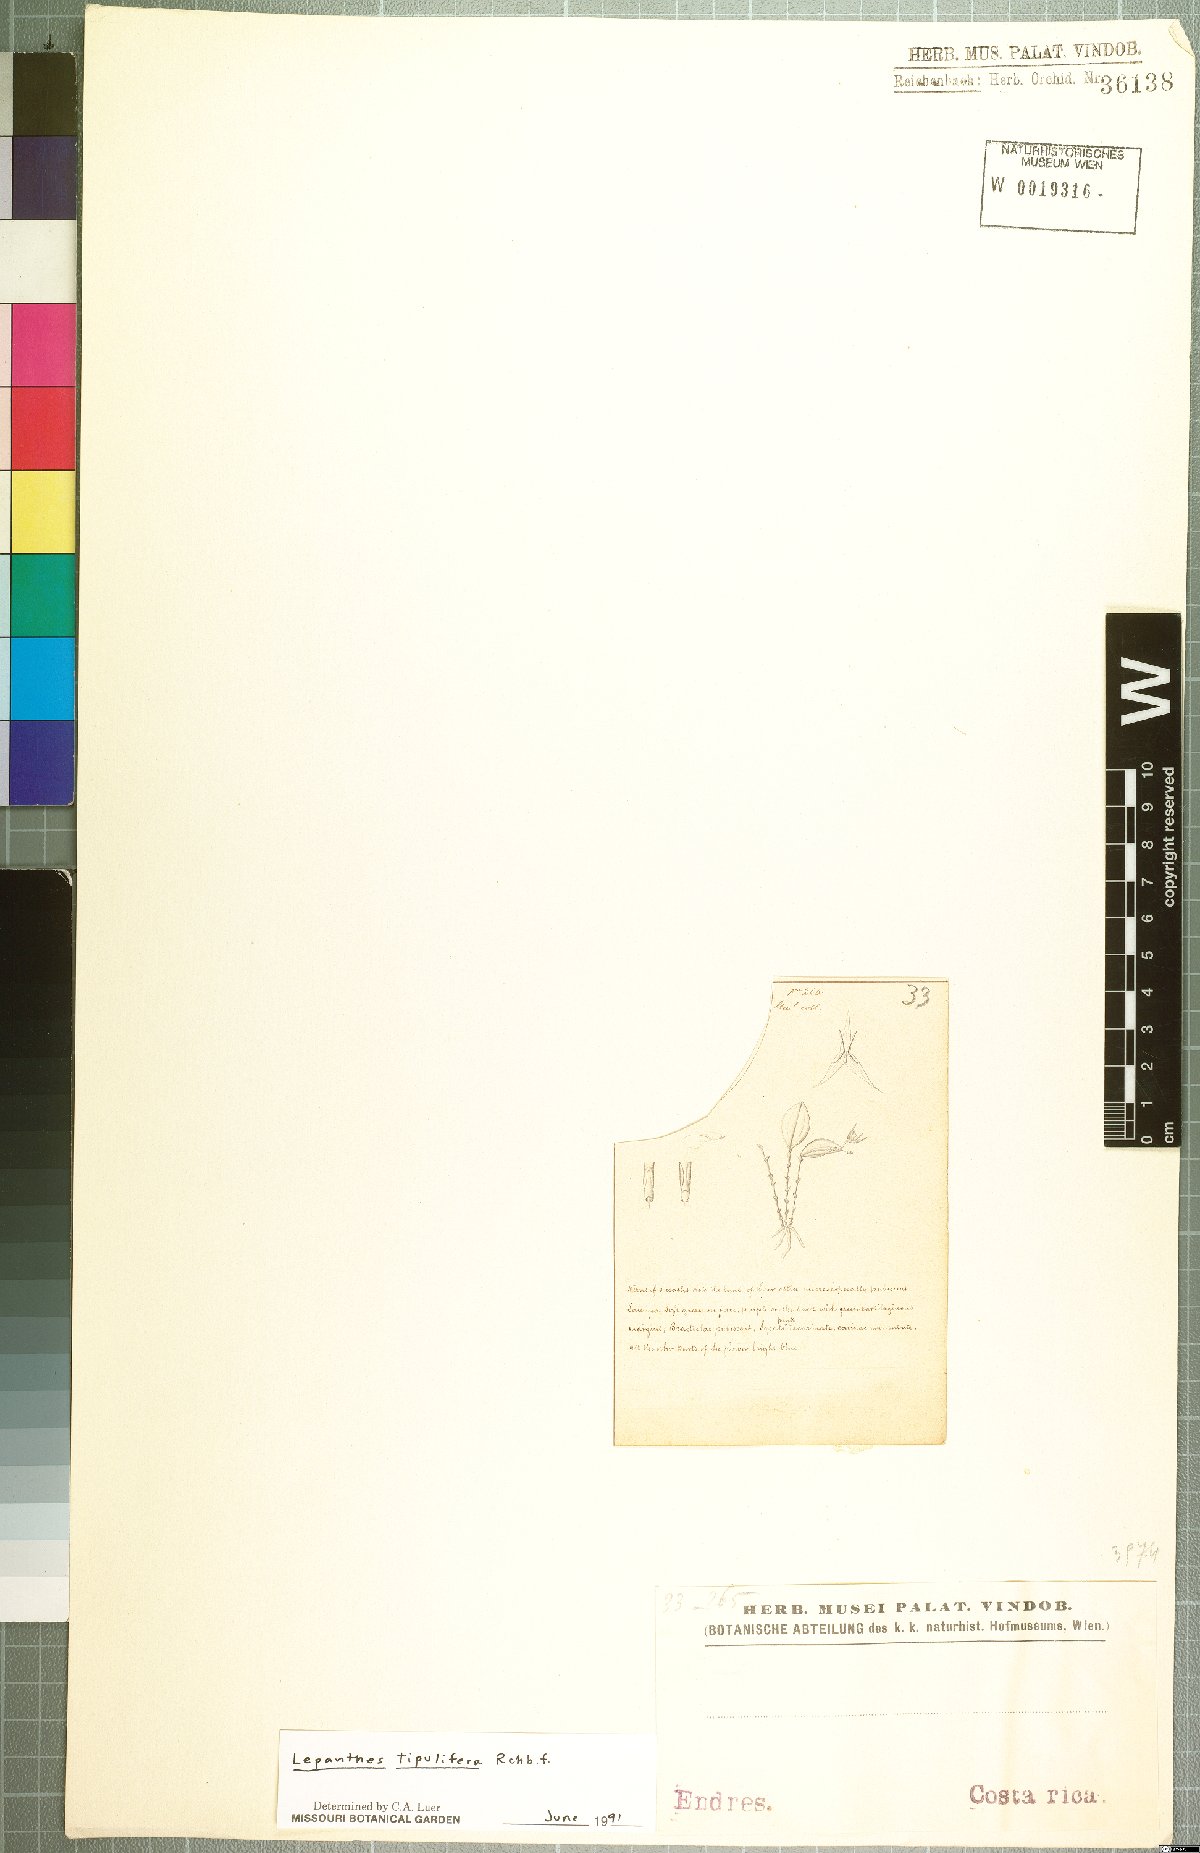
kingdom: Plantae
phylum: Tracheophyta
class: Liliopsida
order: Asparagales
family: Orchidaceae
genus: Lepanthes
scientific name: Lepanthes tipulifera
